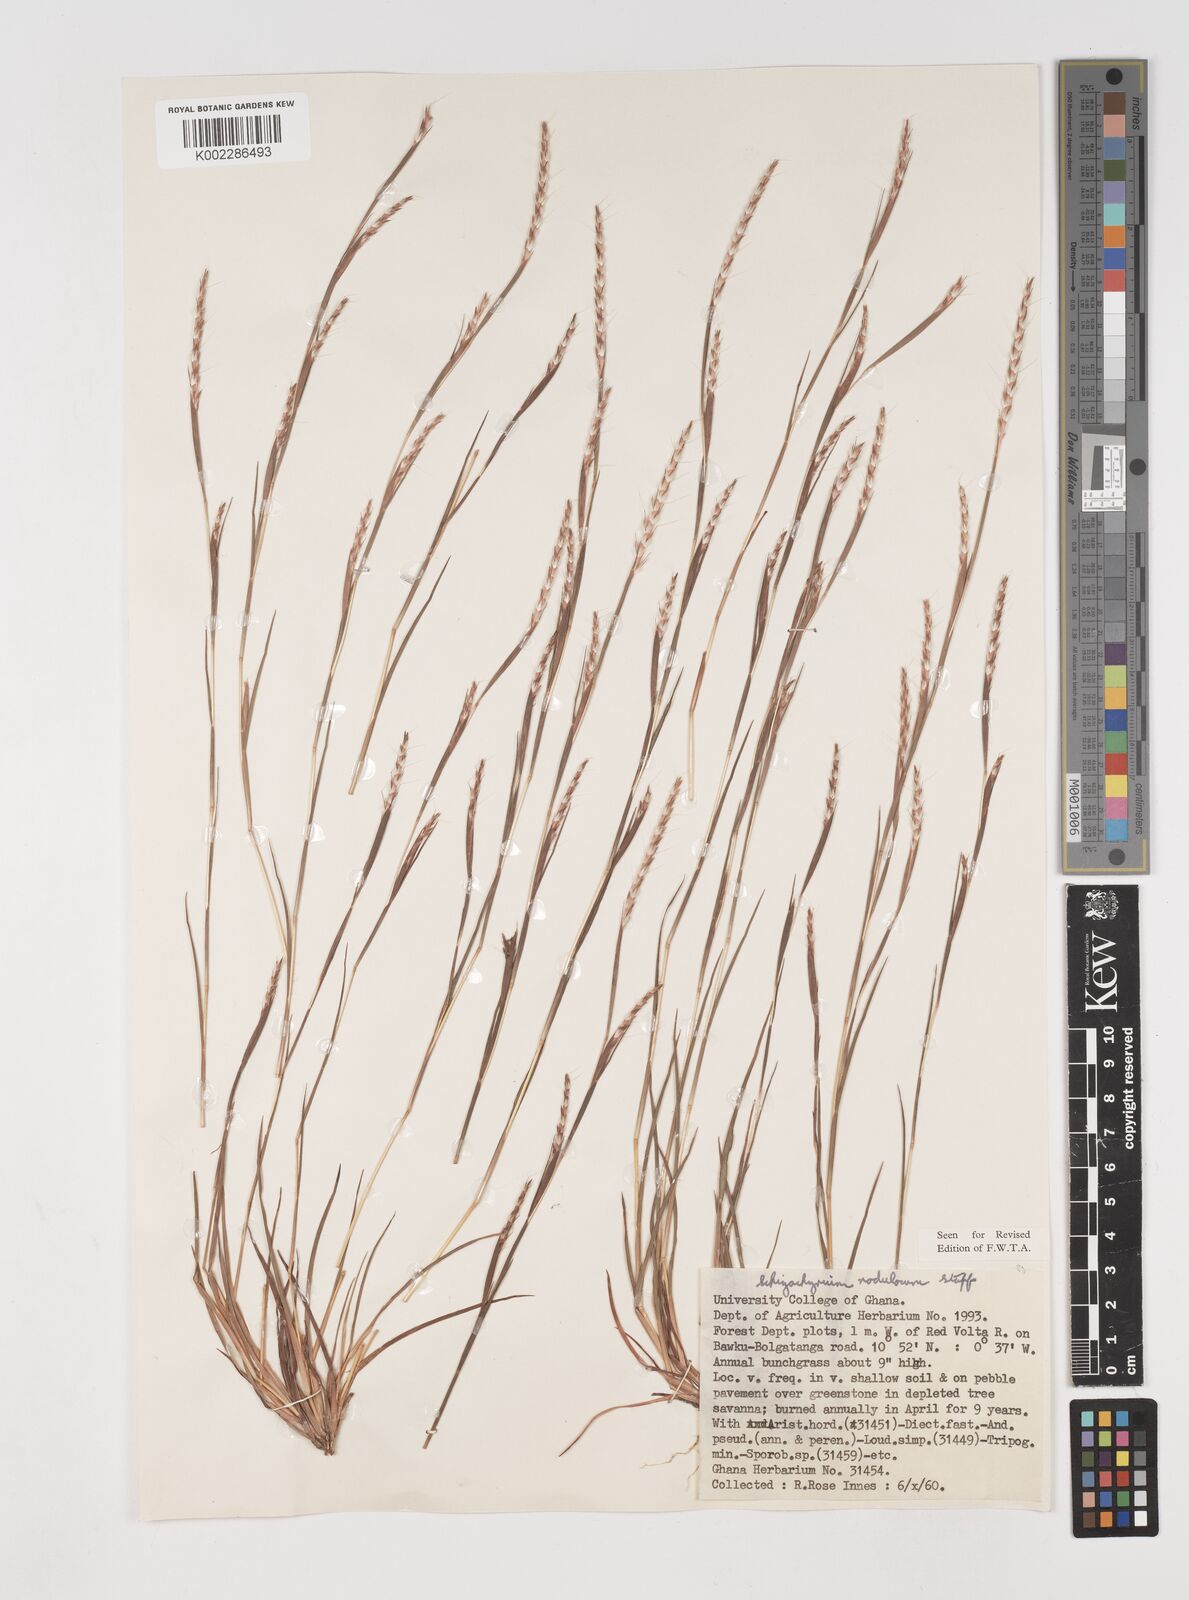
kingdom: Plantae
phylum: Tracheophyta
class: Liliopsida
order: Poales
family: Poaceae
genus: Schizachyrium
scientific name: Schizachyrium nodulosum
